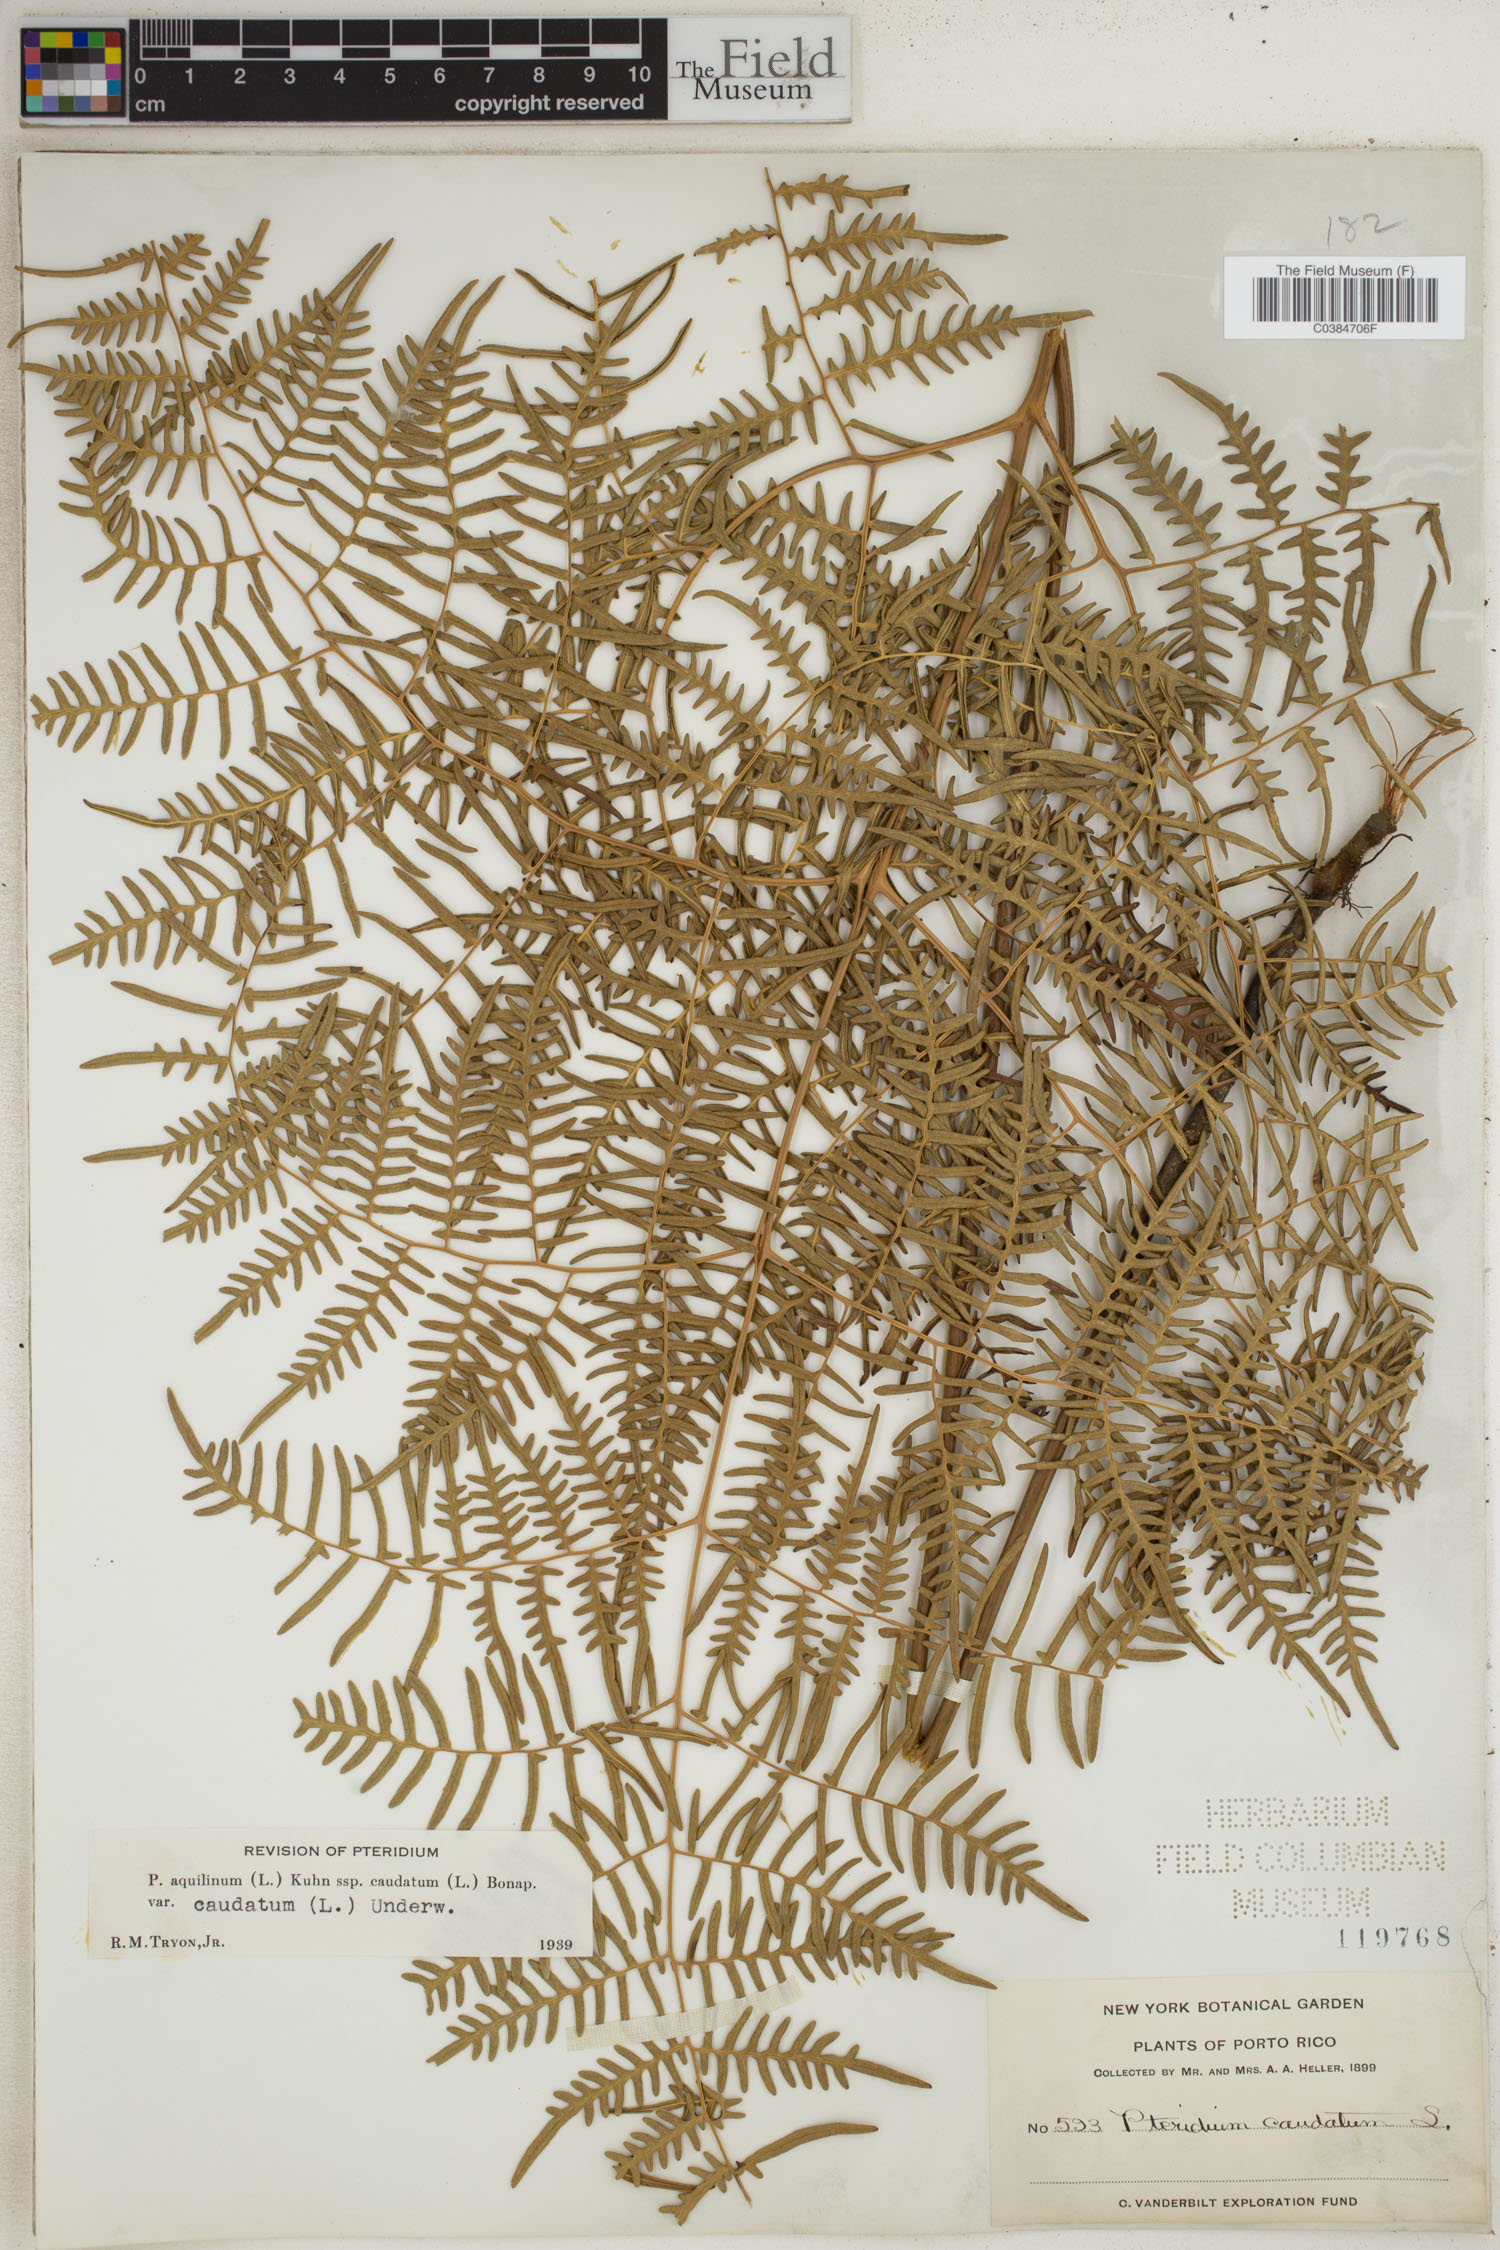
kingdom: Plantae
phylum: Tracheophyta
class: Polypodiopsida
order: Polypodiales
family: Dennstaedtiaceae
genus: Pteridium
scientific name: Pteridium caudatum
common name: Southern bracken fern
